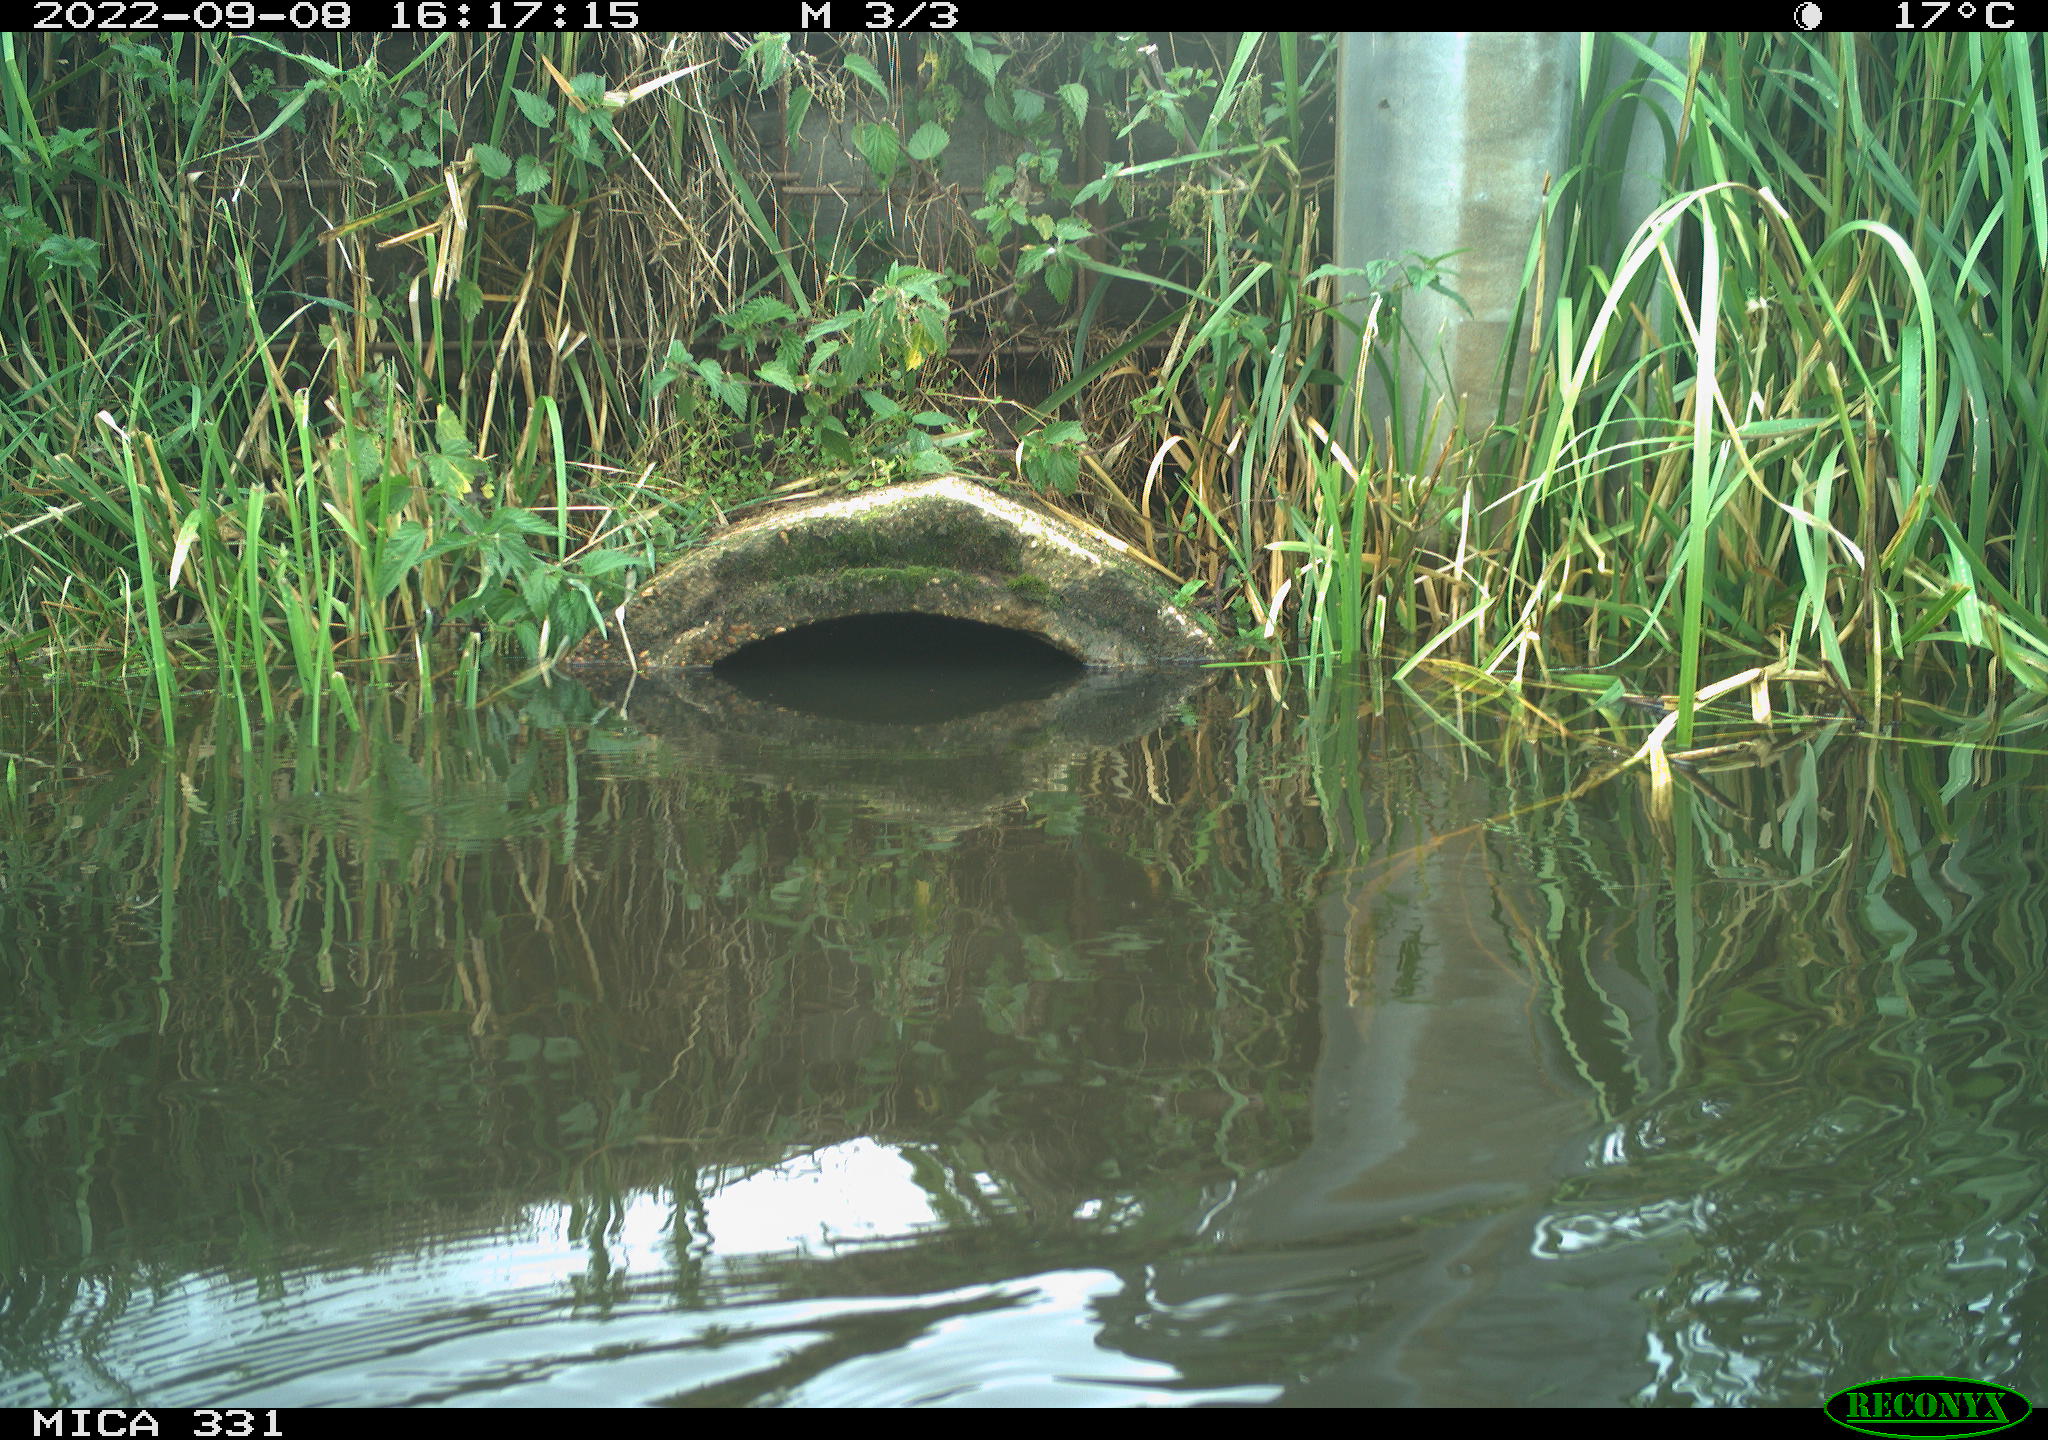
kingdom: Animalia
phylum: Chordata
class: Aves
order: Gruiformes
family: Rallidae
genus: Fulica
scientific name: Fulica atra
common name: Eurasian coot
